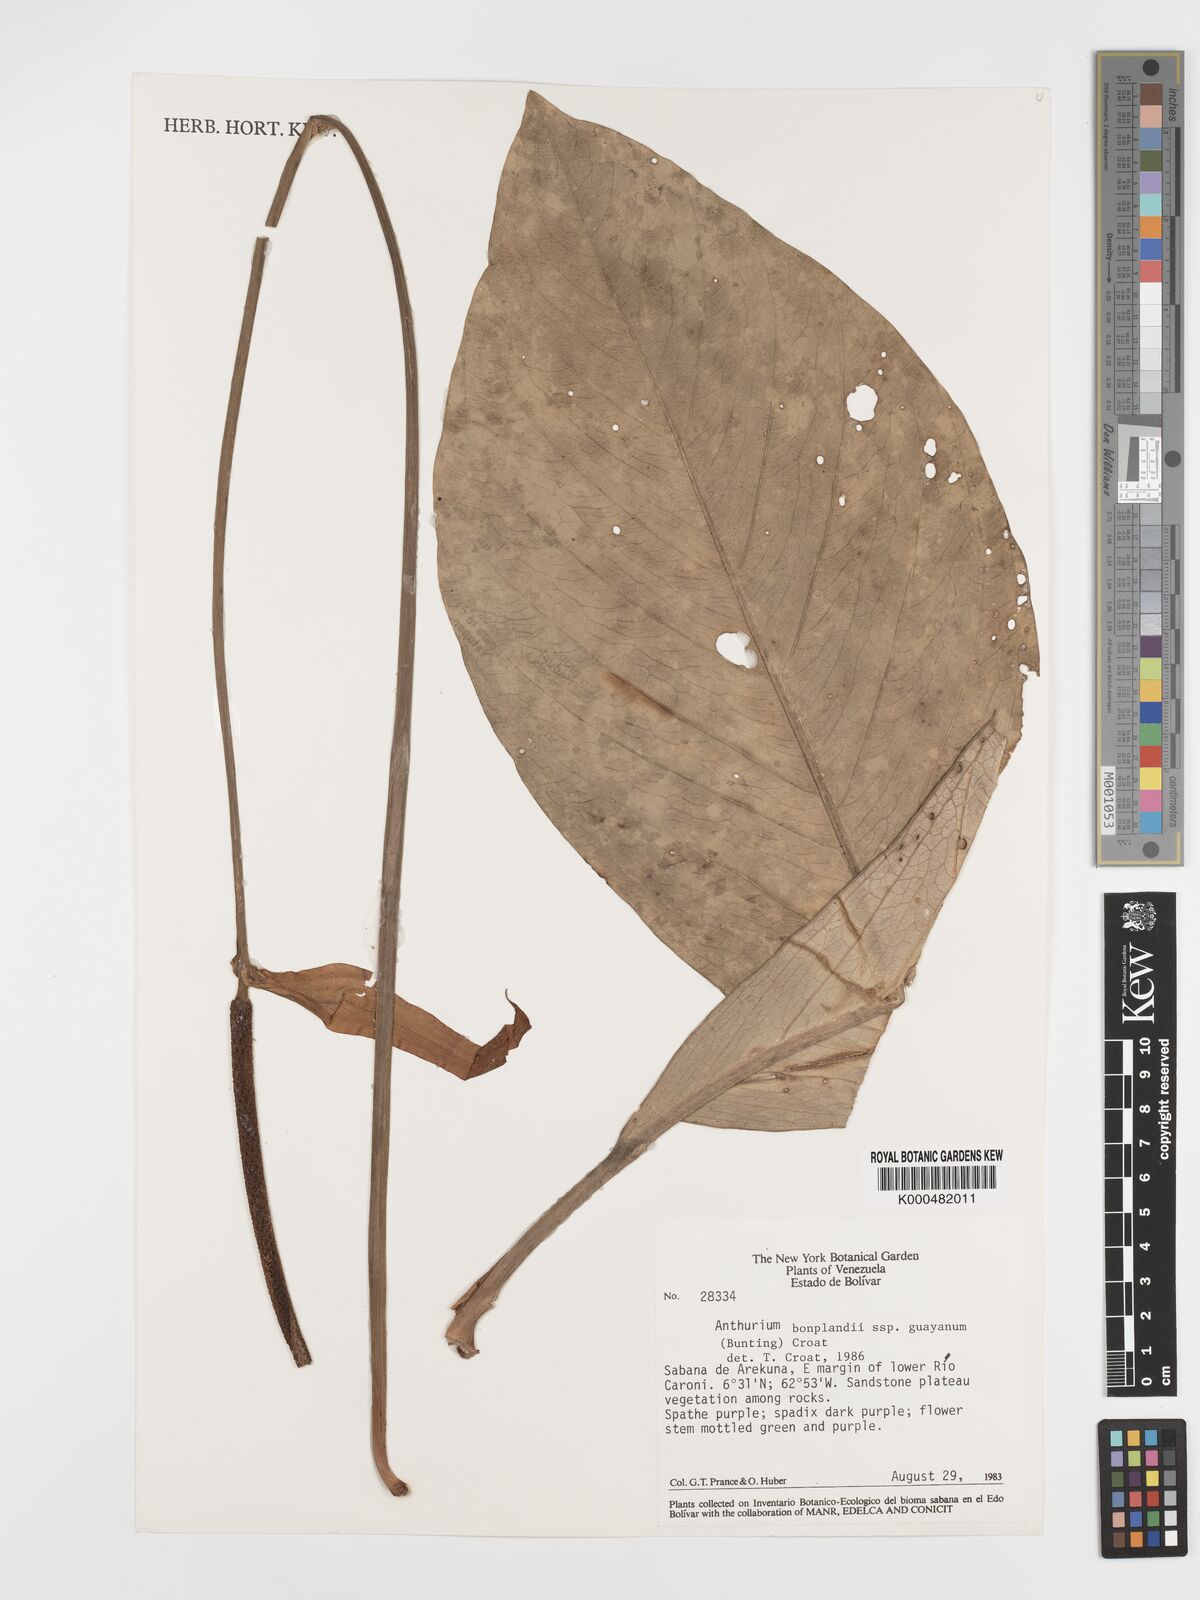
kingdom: Plantae
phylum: Tracheophyta
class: Liliopsida
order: Alismatales
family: Araceae
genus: Anthurium
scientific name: Anthurium bonplandii
